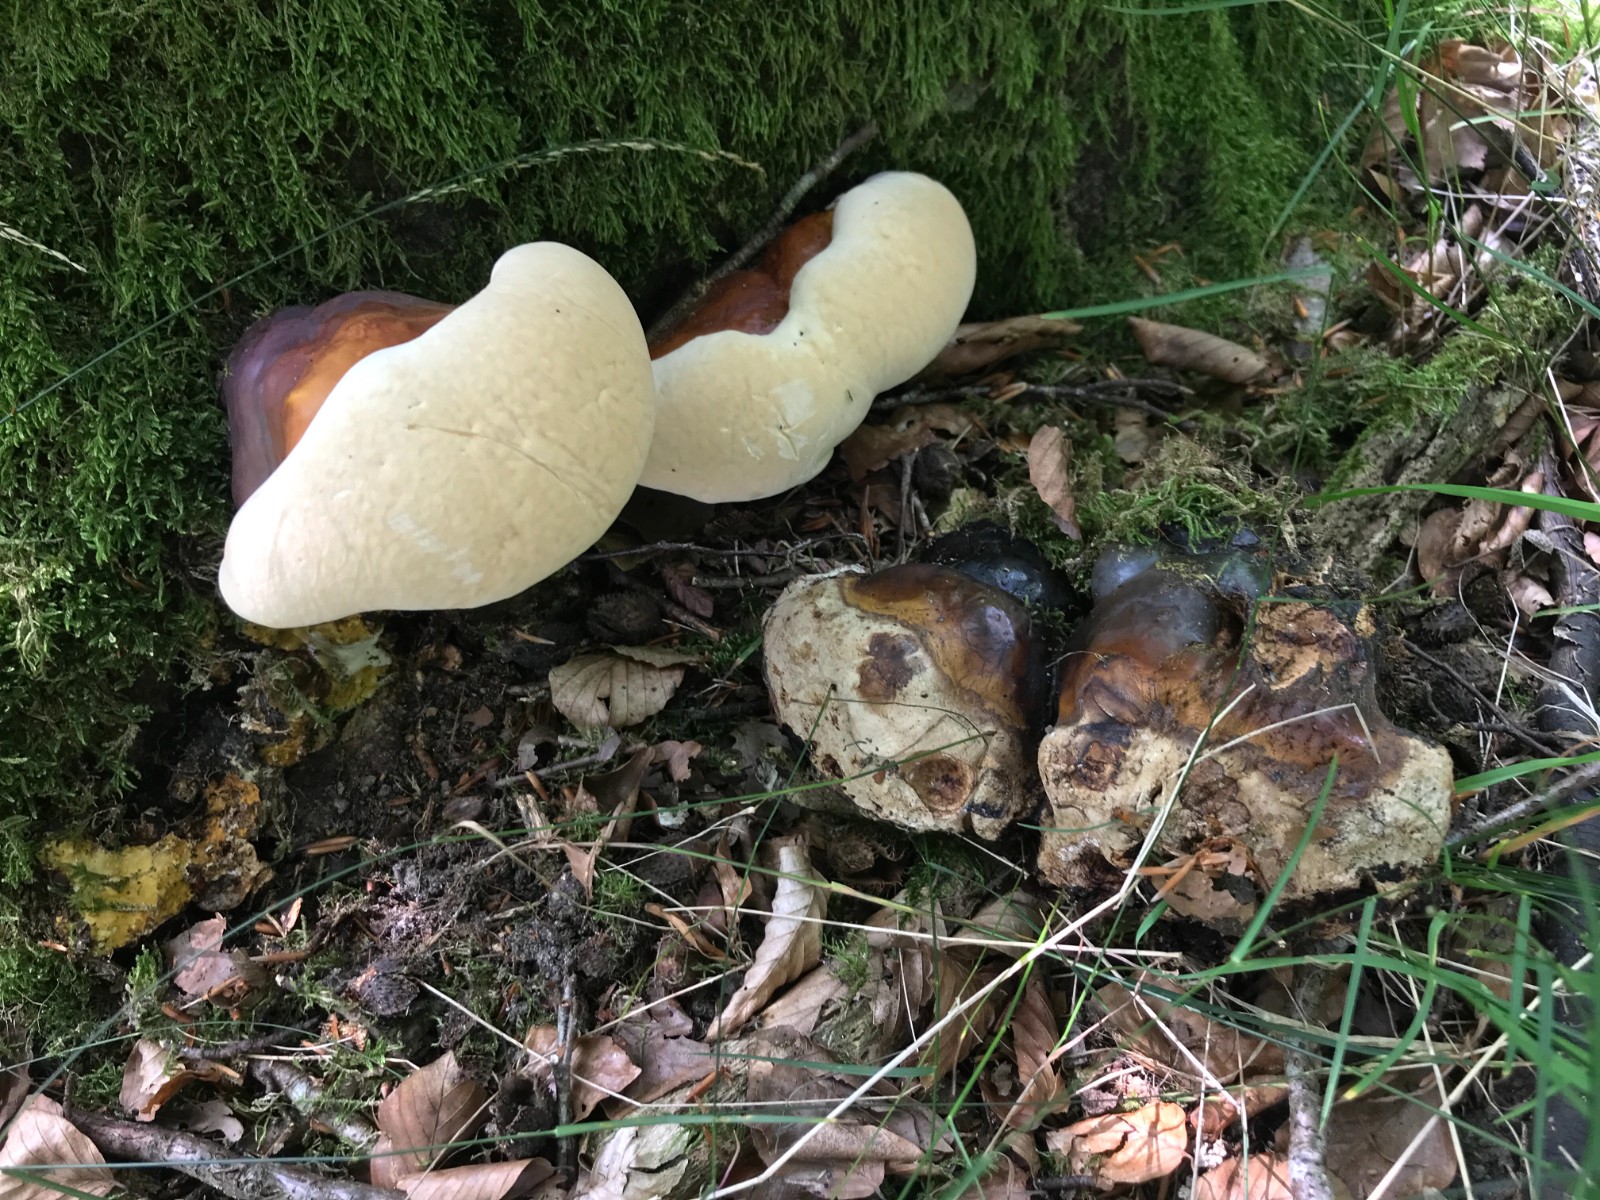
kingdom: Fungi
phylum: Basidiomycota
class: Agaricomycetes
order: Polyporales
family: Polyporaceae
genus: Ganoderma
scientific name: Ganoderma resinaceum
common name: gyldenbrun lakporesvamp
